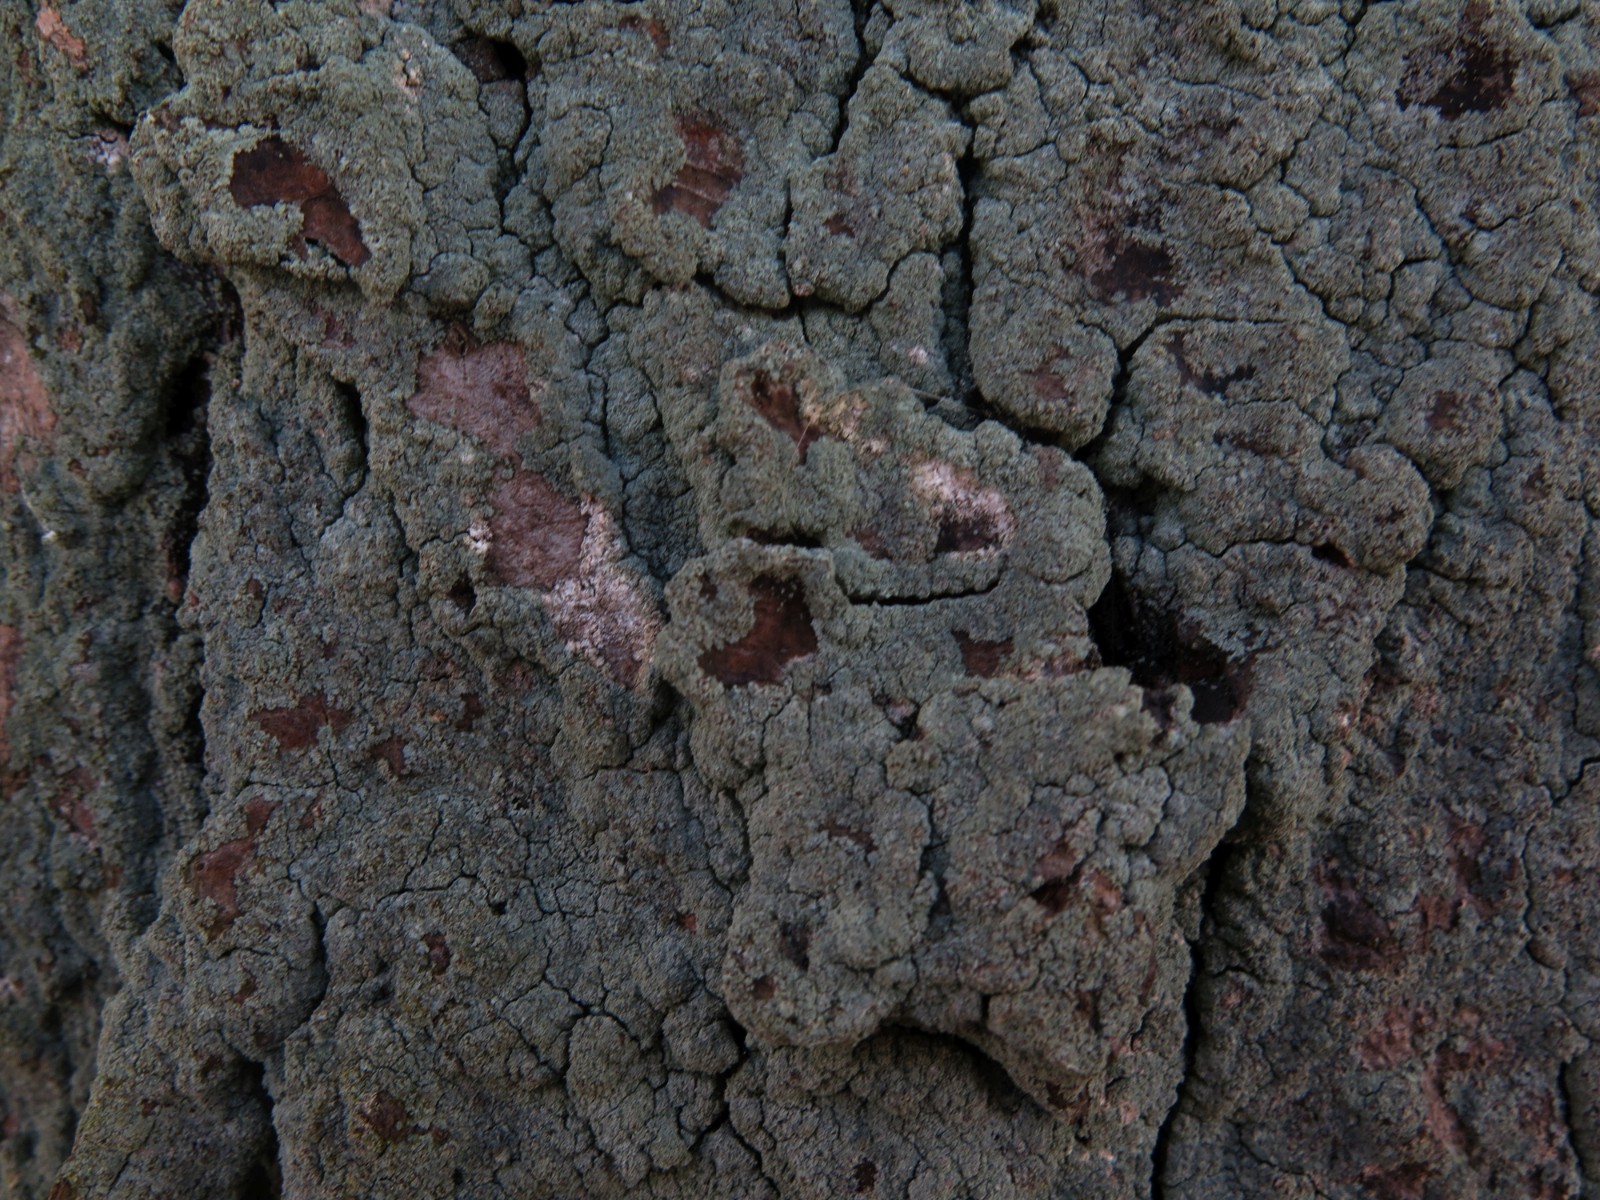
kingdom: Fungi
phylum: Ascomycota
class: Lecanoromycetes
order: Lecanorales
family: Stereocaulaceae
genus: Lepraria
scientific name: Lepraria incana
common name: almindelig støvlav
